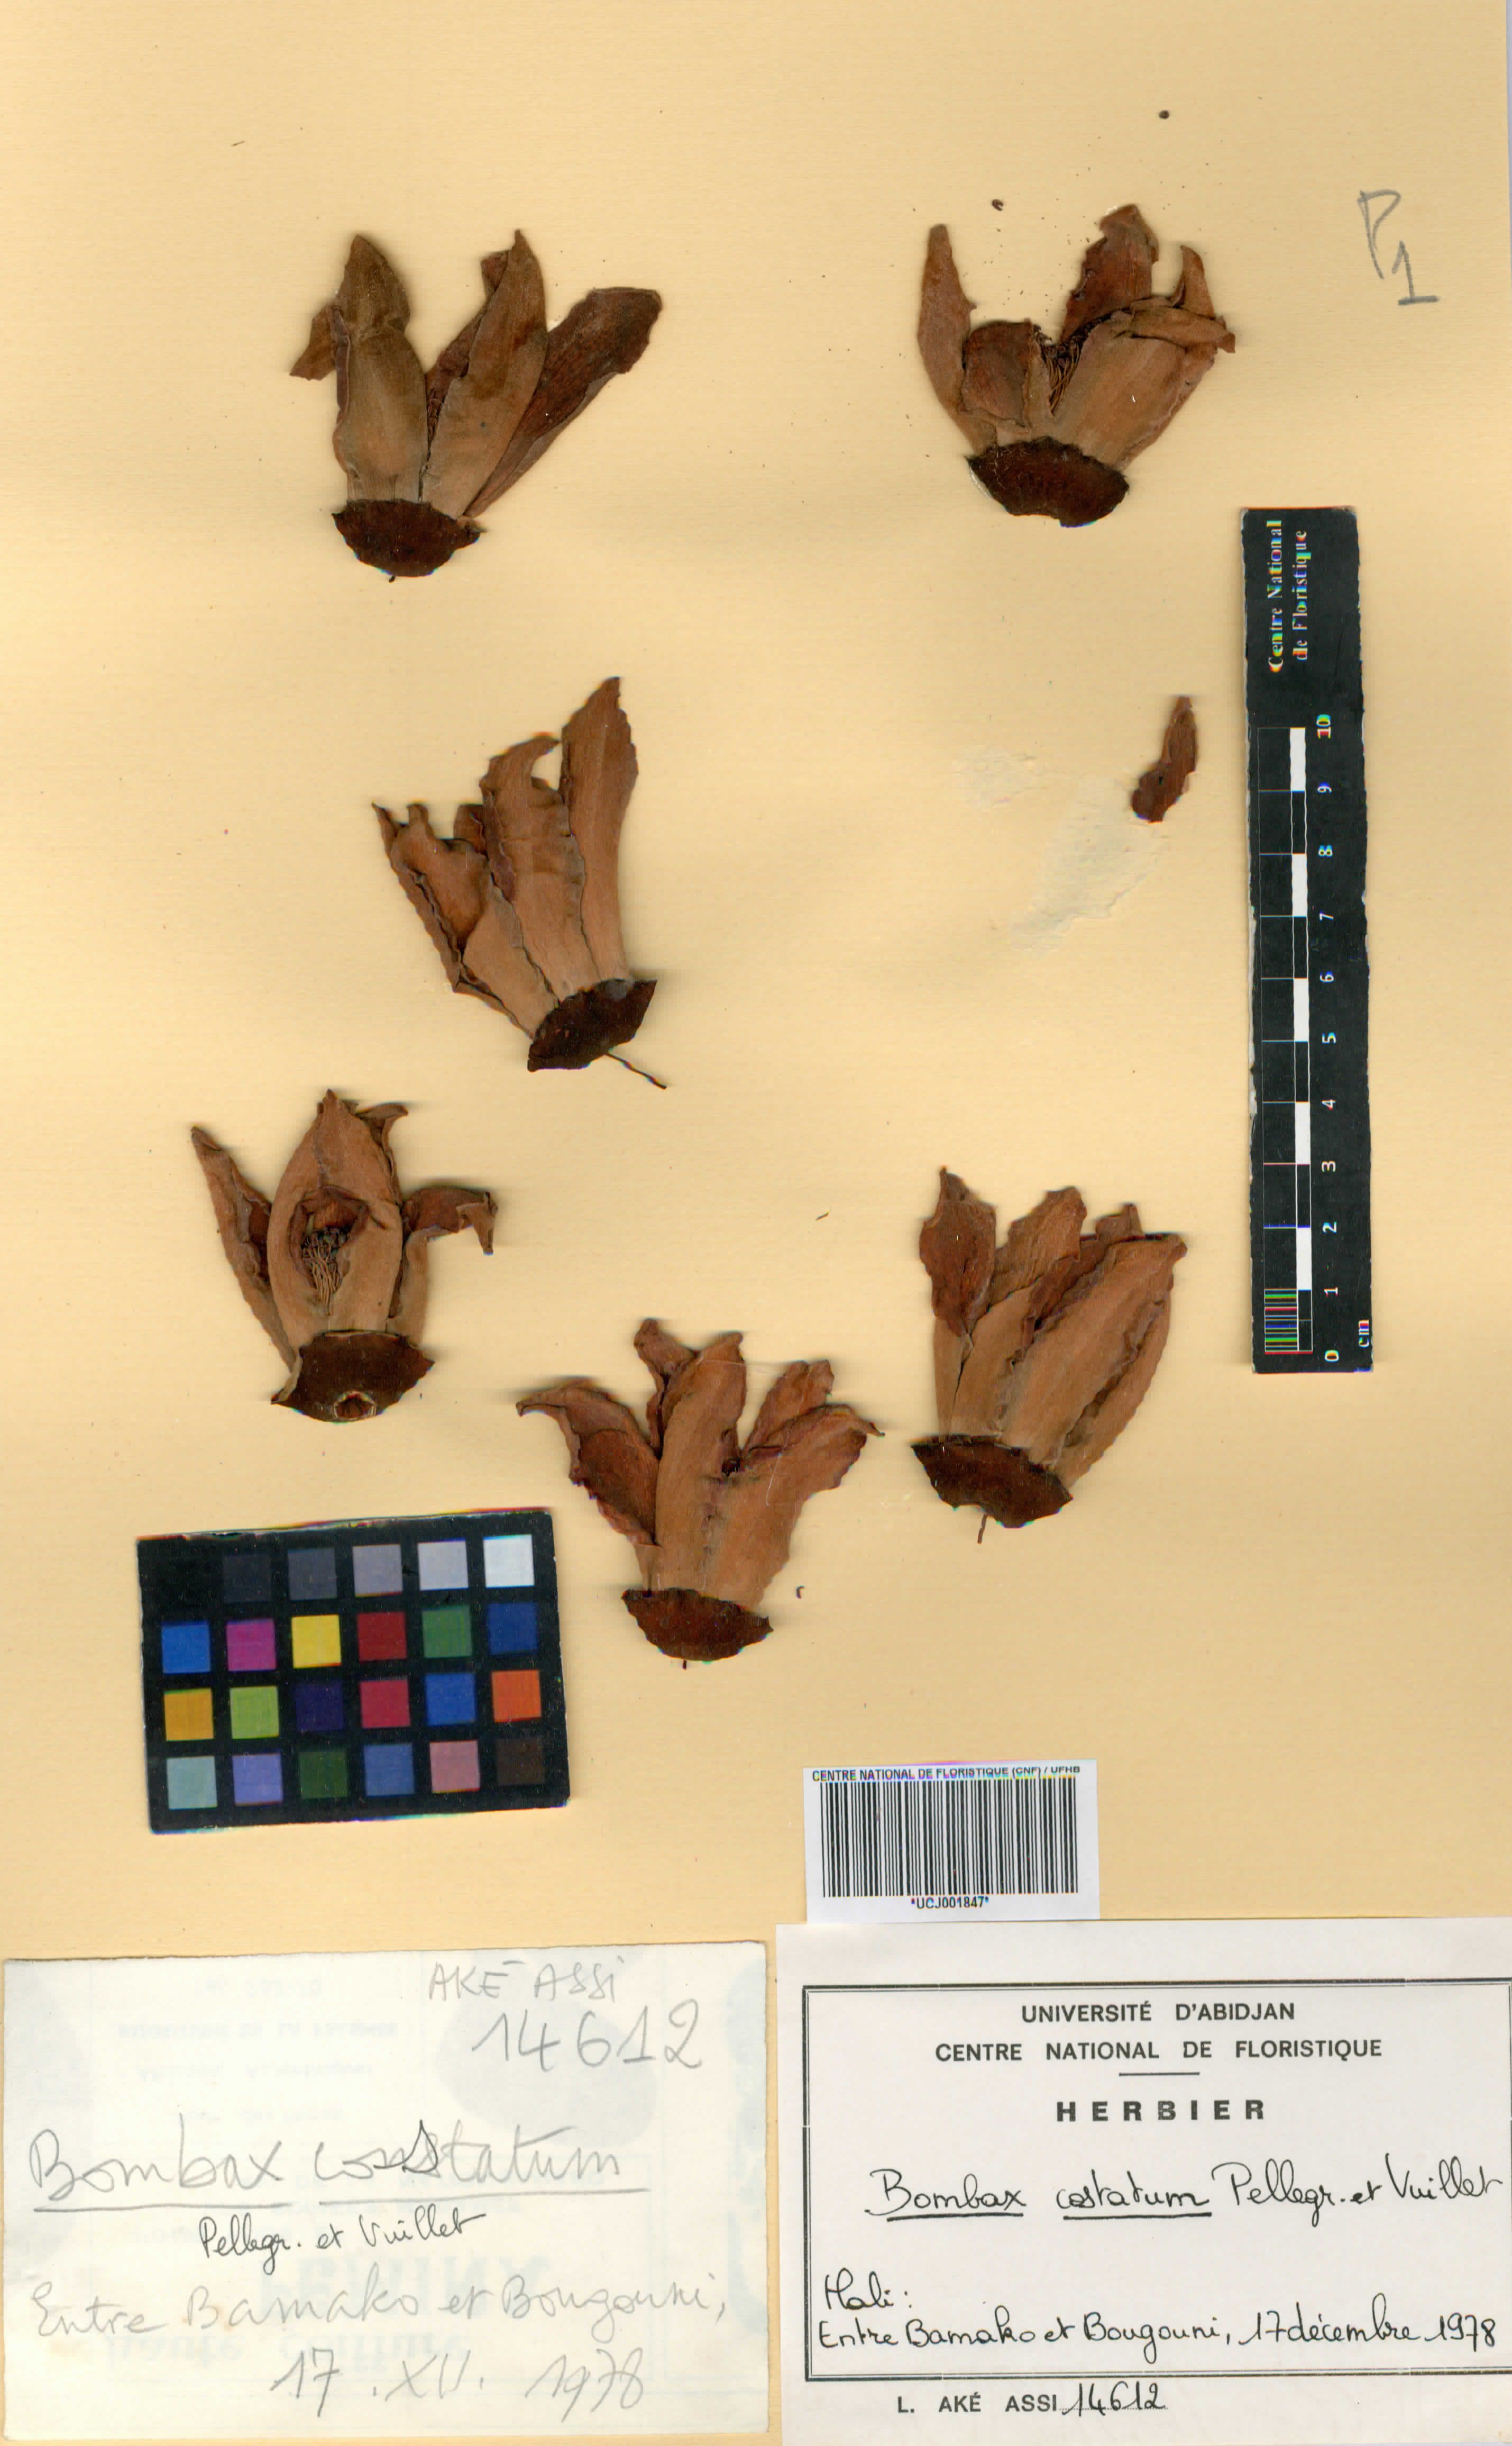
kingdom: Plantae
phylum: Tracheophyta
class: Magnoliopsida
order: Malvales
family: Malvaceae
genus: Bombax
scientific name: Bombax costatum
